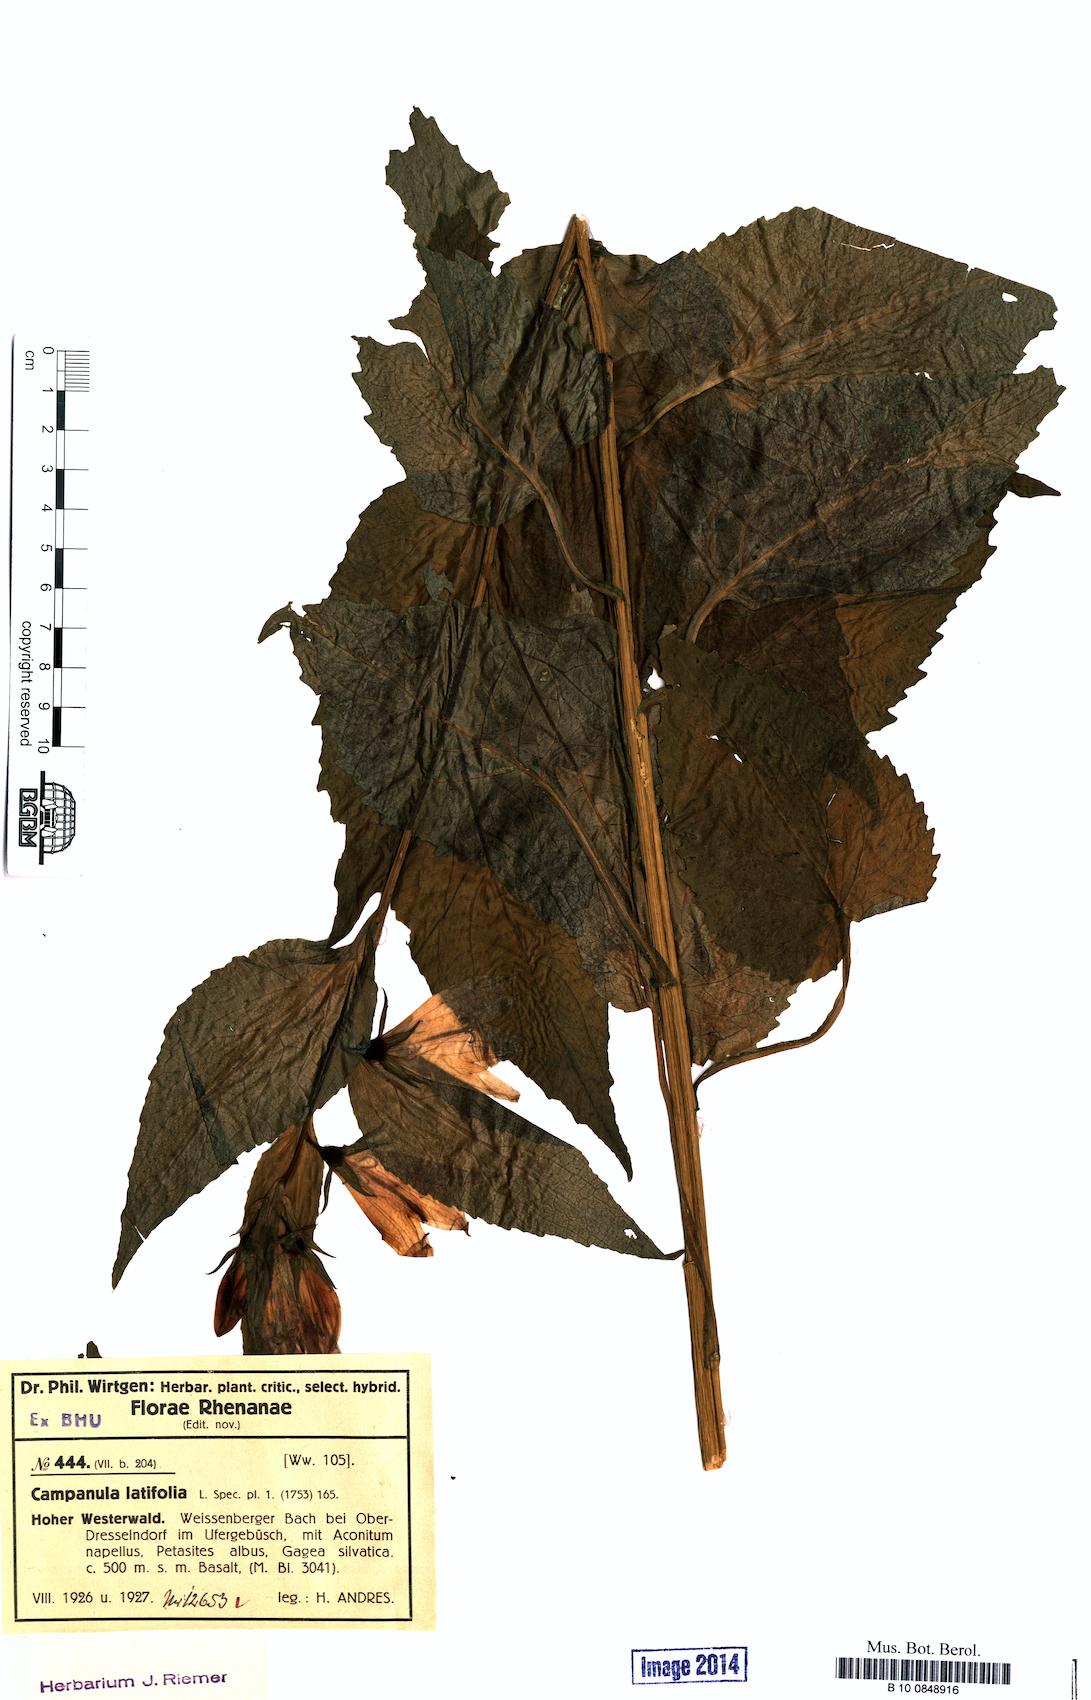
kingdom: Plantae
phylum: Tracheophyta
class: Magnoliopsida
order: Asterales
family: Campanulaceae
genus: Campanula
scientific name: Campanula latifolia
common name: Giant bellflower
